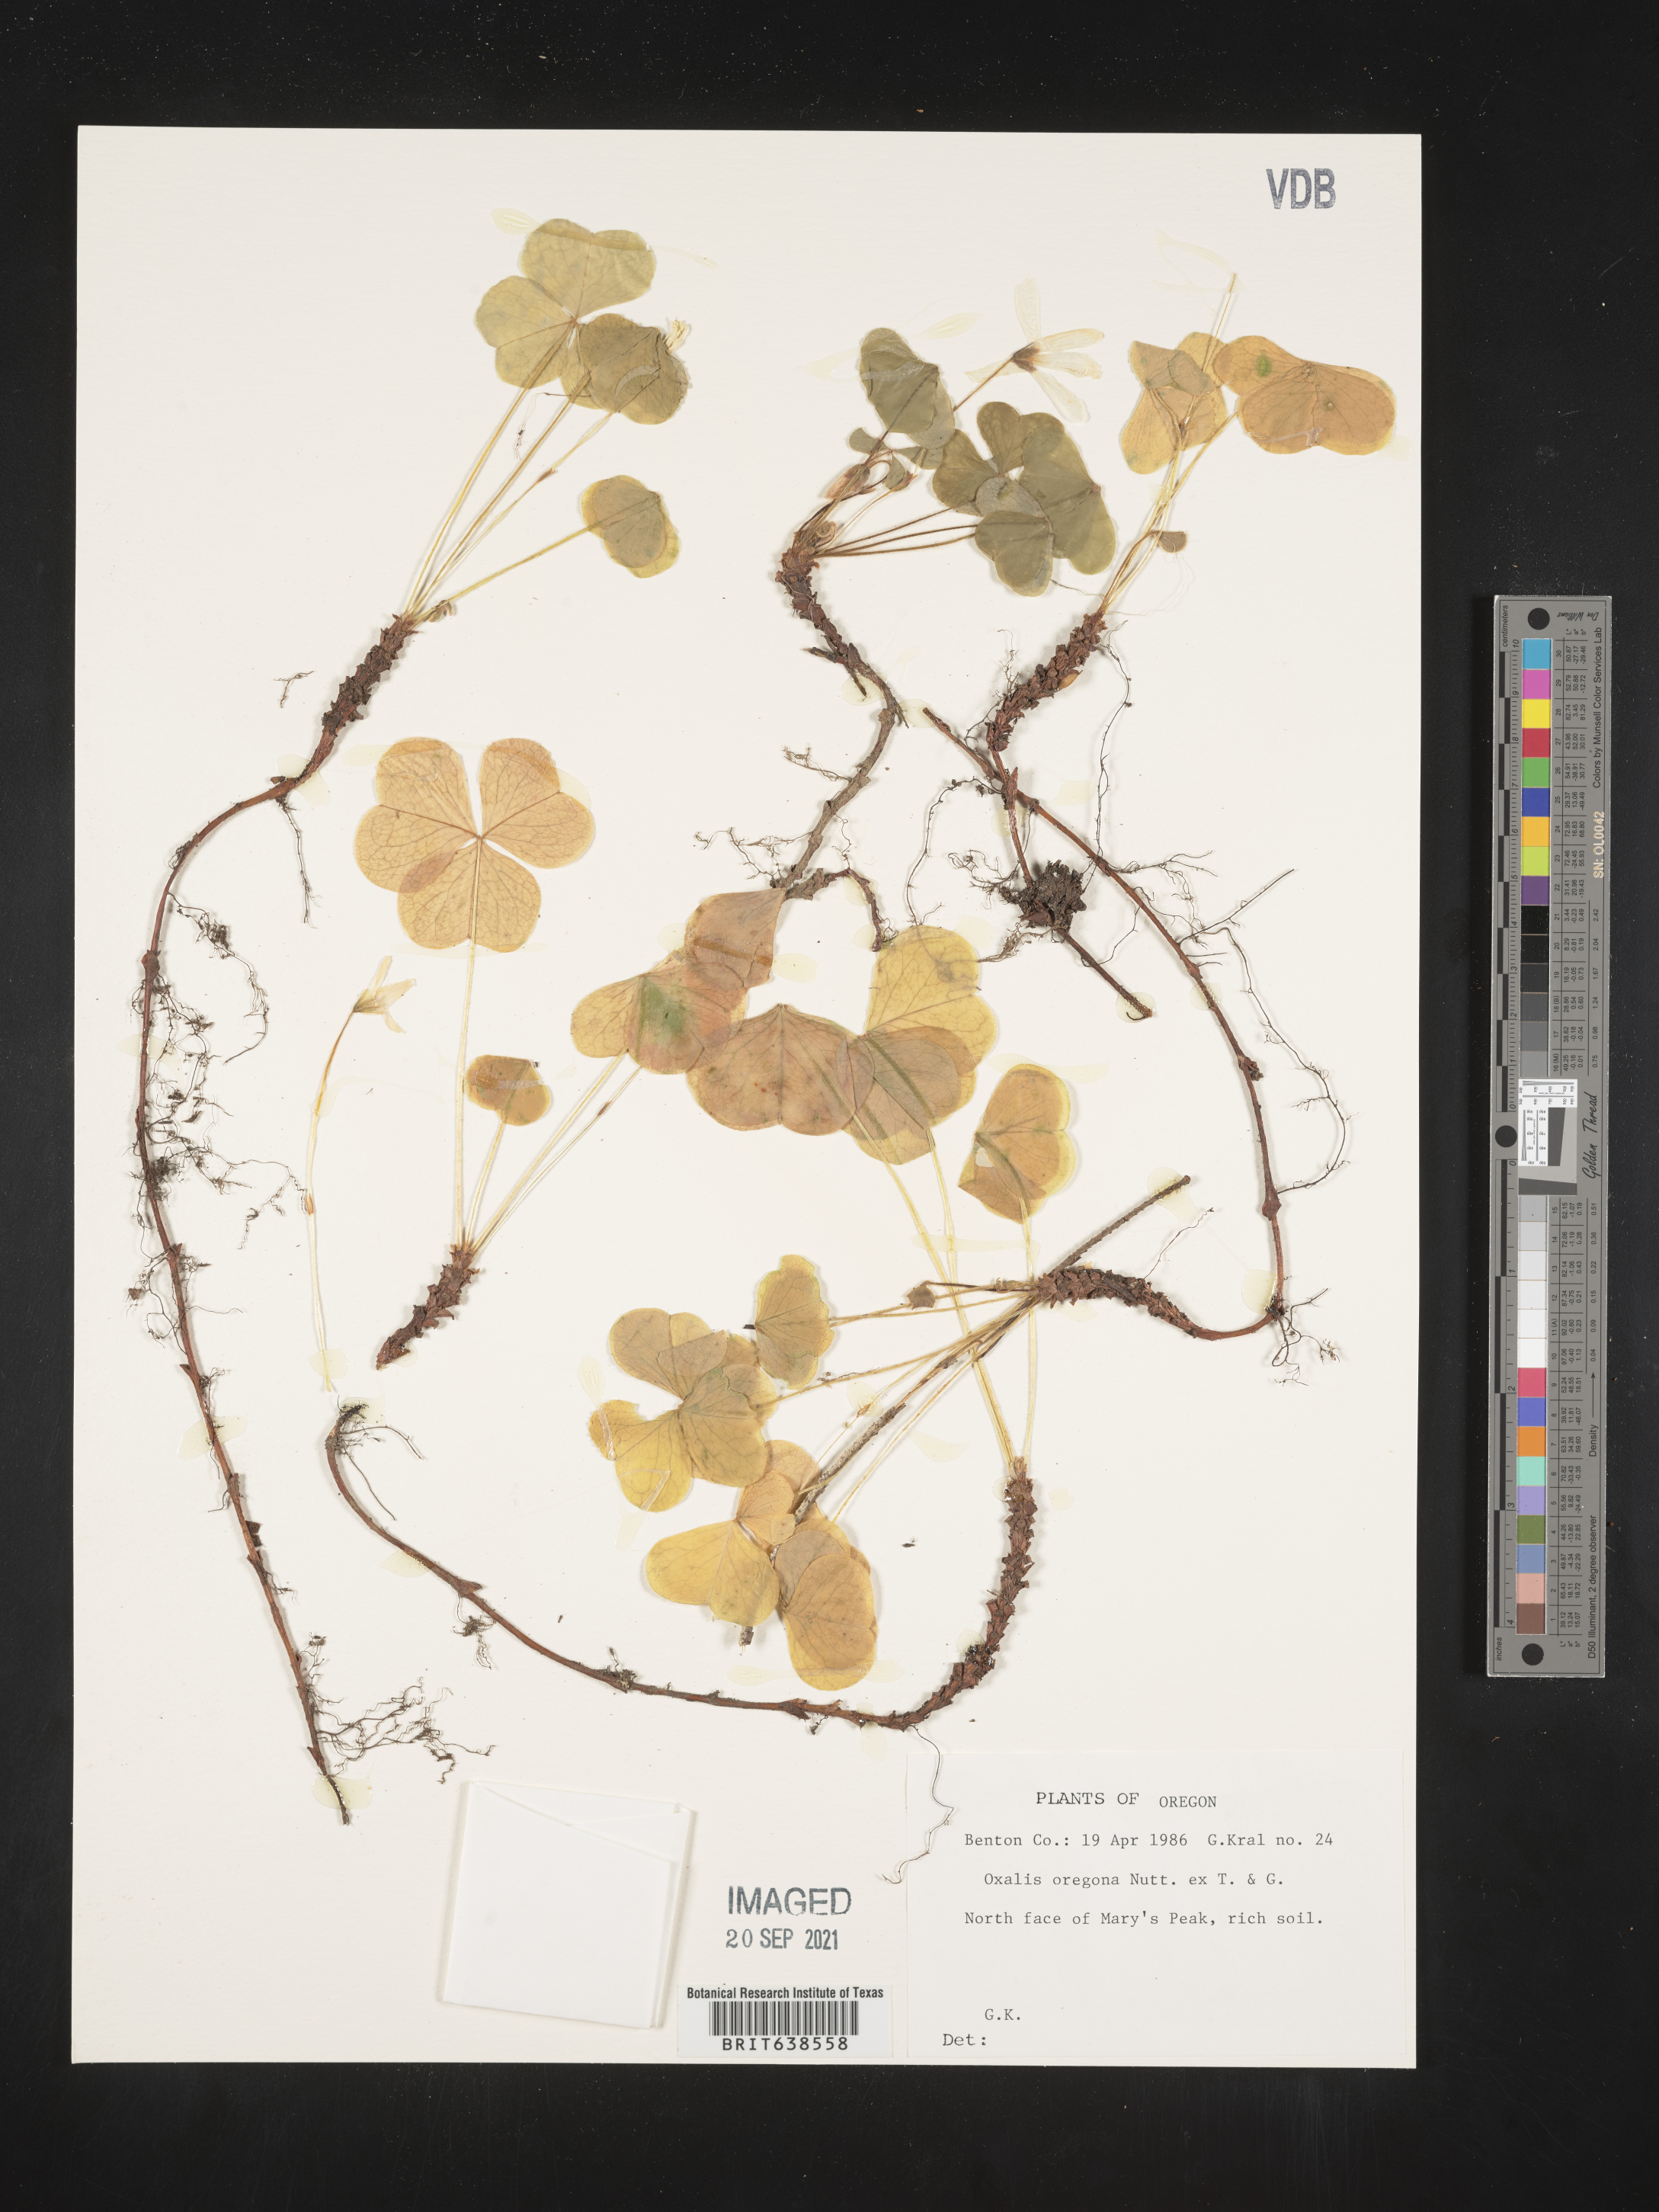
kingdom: Plantae
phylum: Tracheophyta
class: Magnoliopsida
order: Oxalidales
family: Oxalidaceae
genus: Oxalis
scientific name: Oxalis oregana
